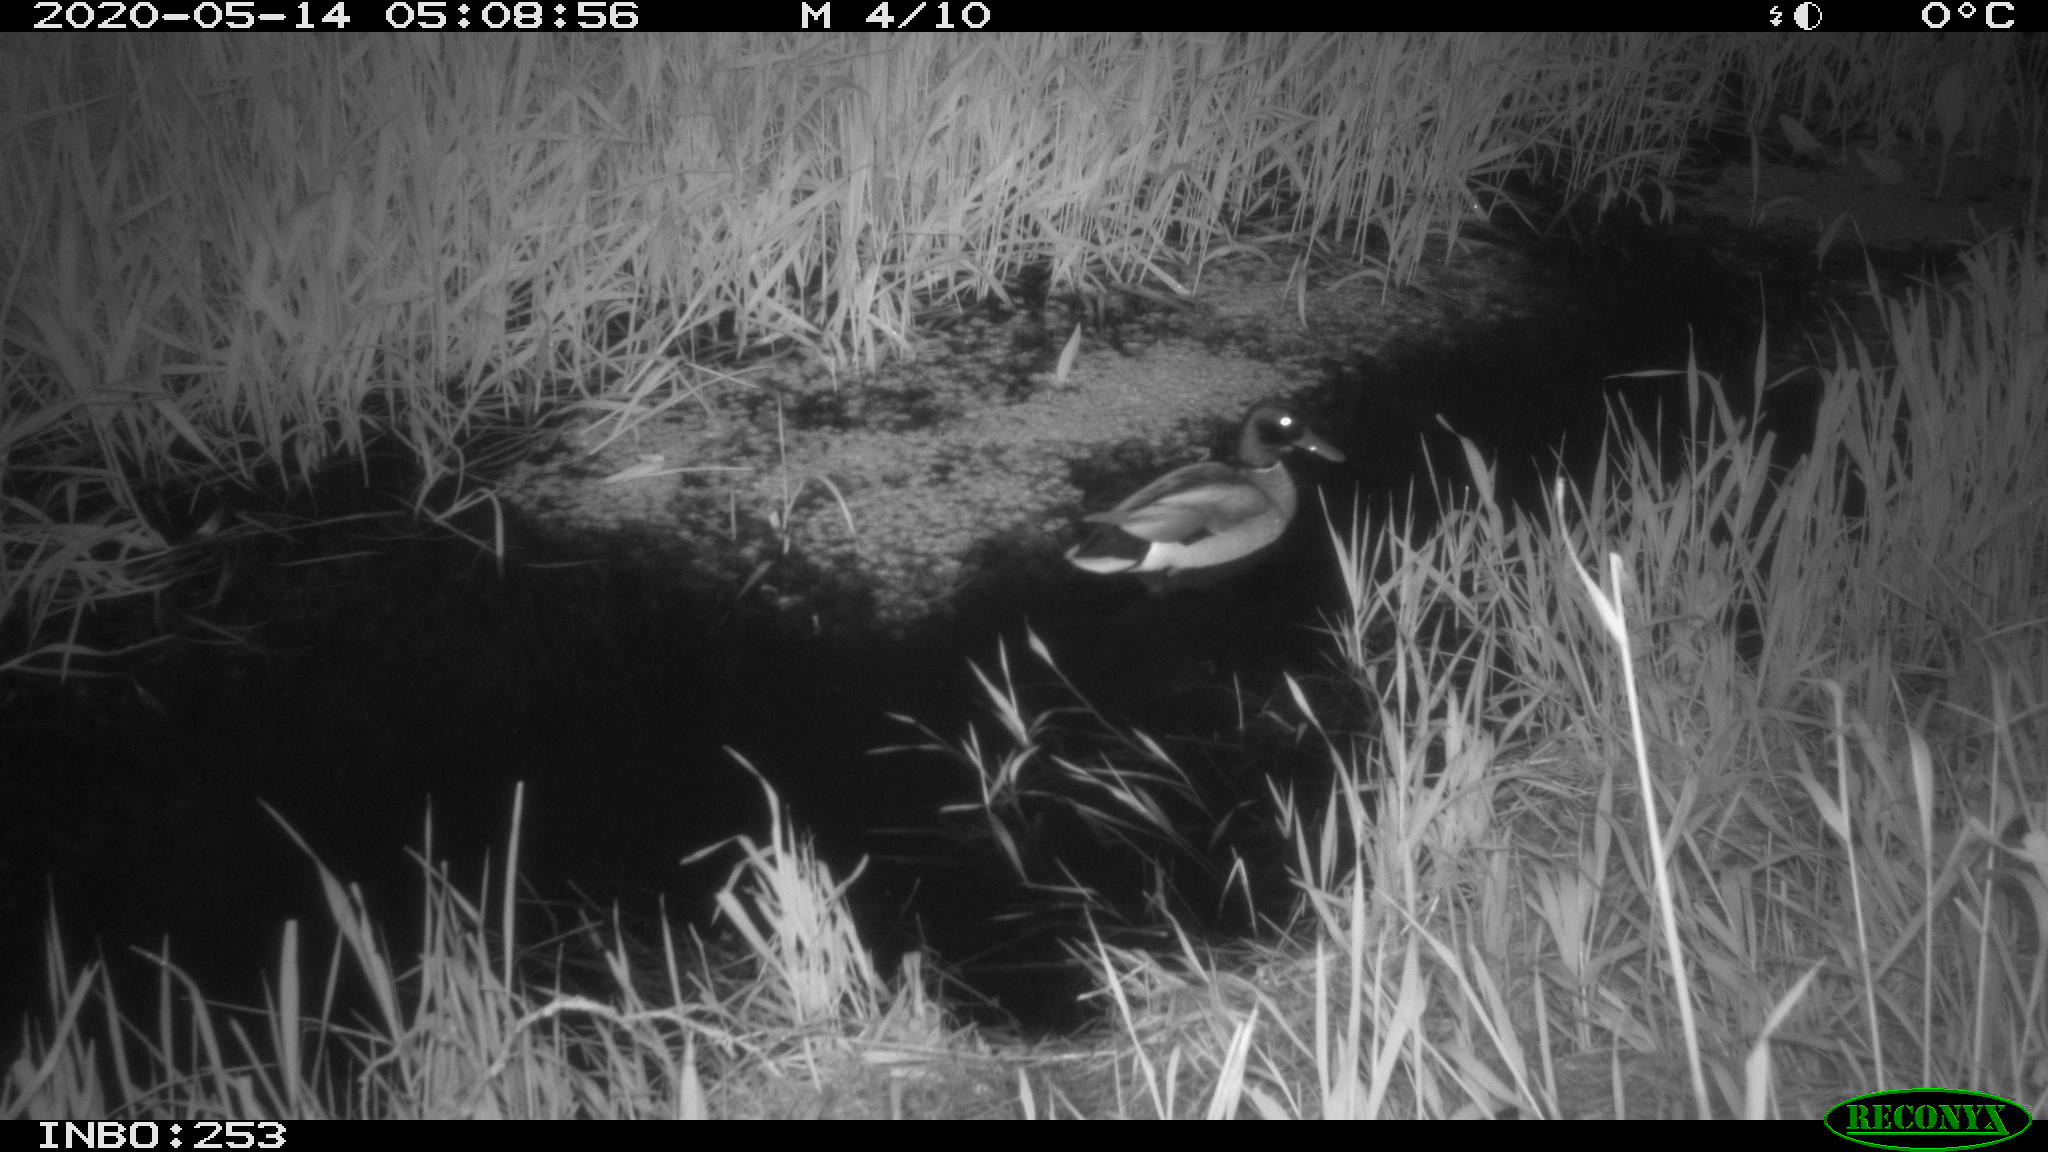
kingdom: Animalia
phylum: Chordata
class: Aves
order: Anseriformes
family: Anatidae
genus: Anas
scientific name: Anas platyrhynchos
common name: Mallard
